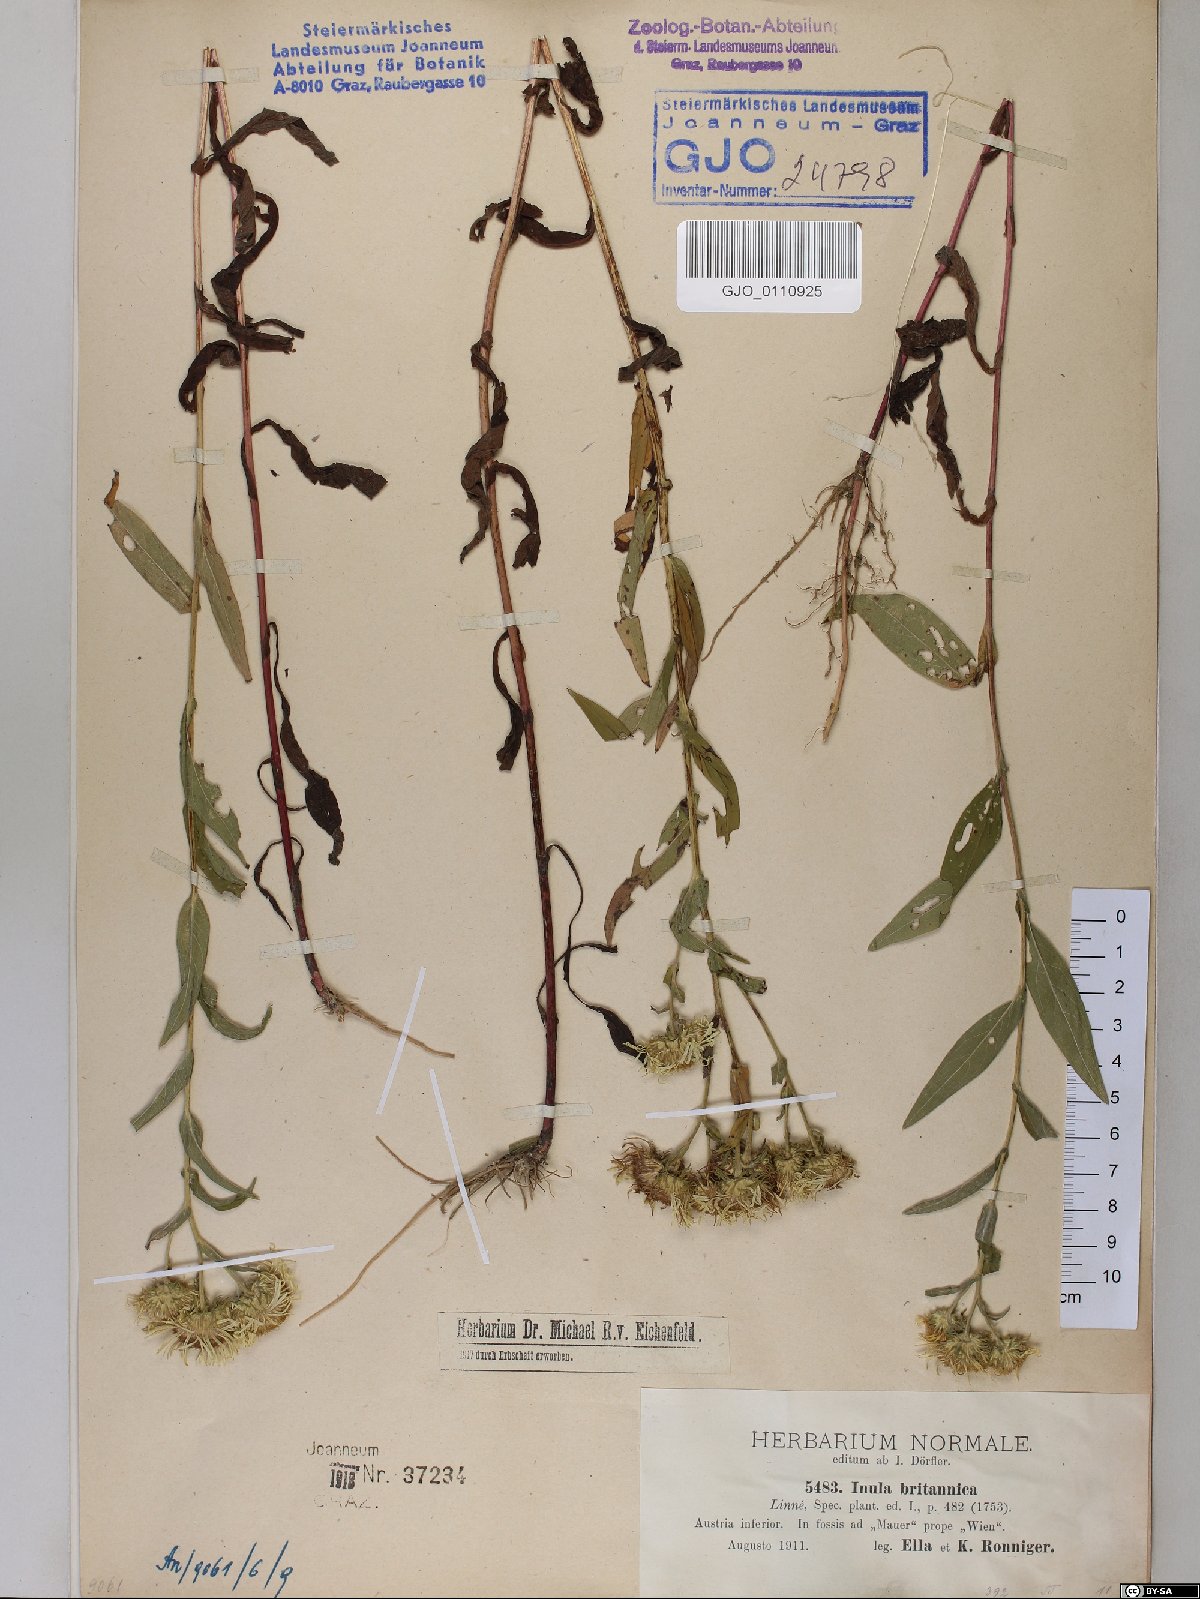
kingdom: Plantae
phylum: Tracheophyta
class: Magnoliopsida
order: Asterales
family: Asteraceae
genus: Pentanema
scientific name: Pentanema britannicum
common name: British elecampane
